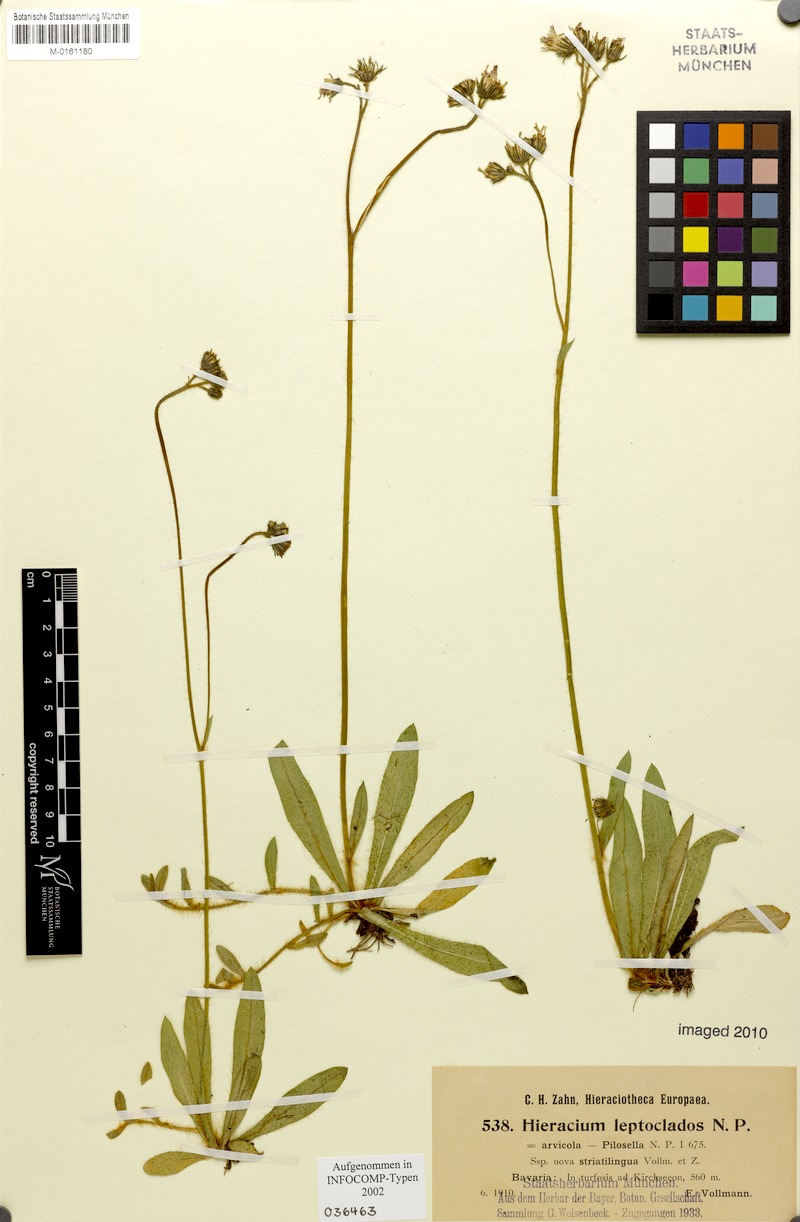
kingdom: Plantae
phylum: Tracheophyta
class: Magnoliopsida
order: Asterales
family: Asteraceae
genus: Pilosella
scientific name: Pilosella leptoclados
